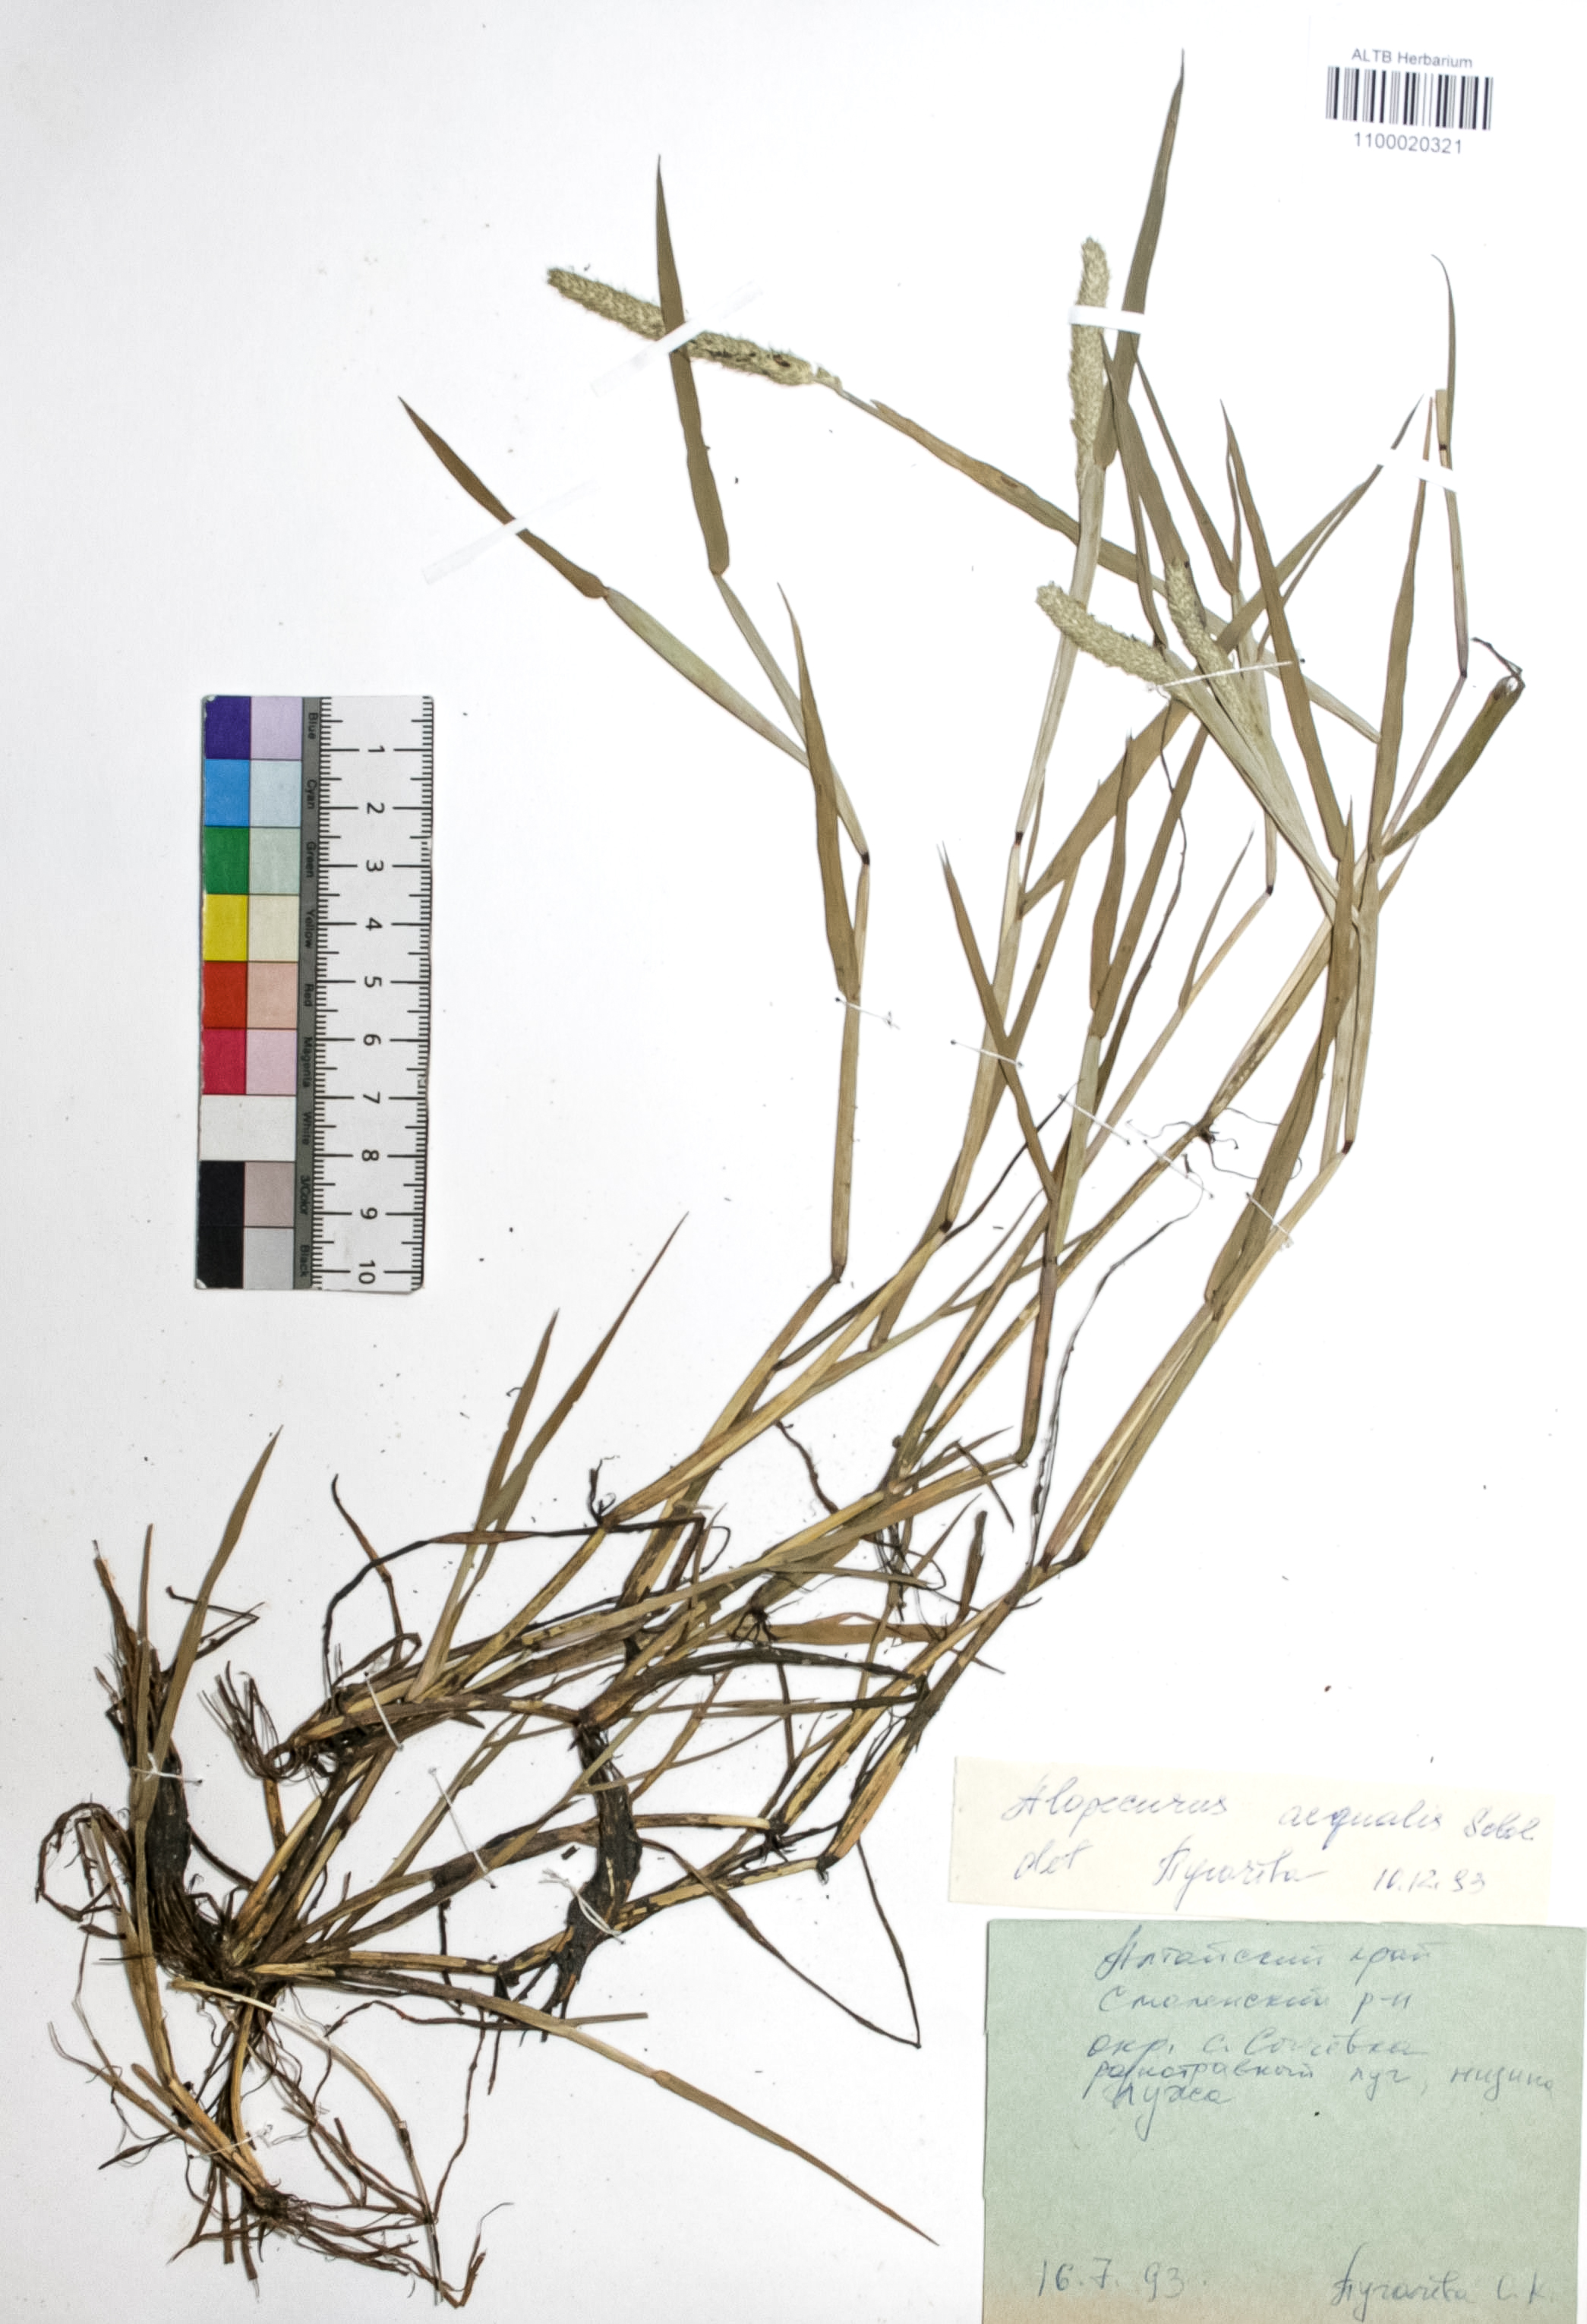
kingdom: Plantae
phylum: Tracheophyta
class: Liliopsida
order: Poales
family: Poaceae
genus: Alopecurus
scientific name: Alopecurus aequalis
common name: Orange foxtail
